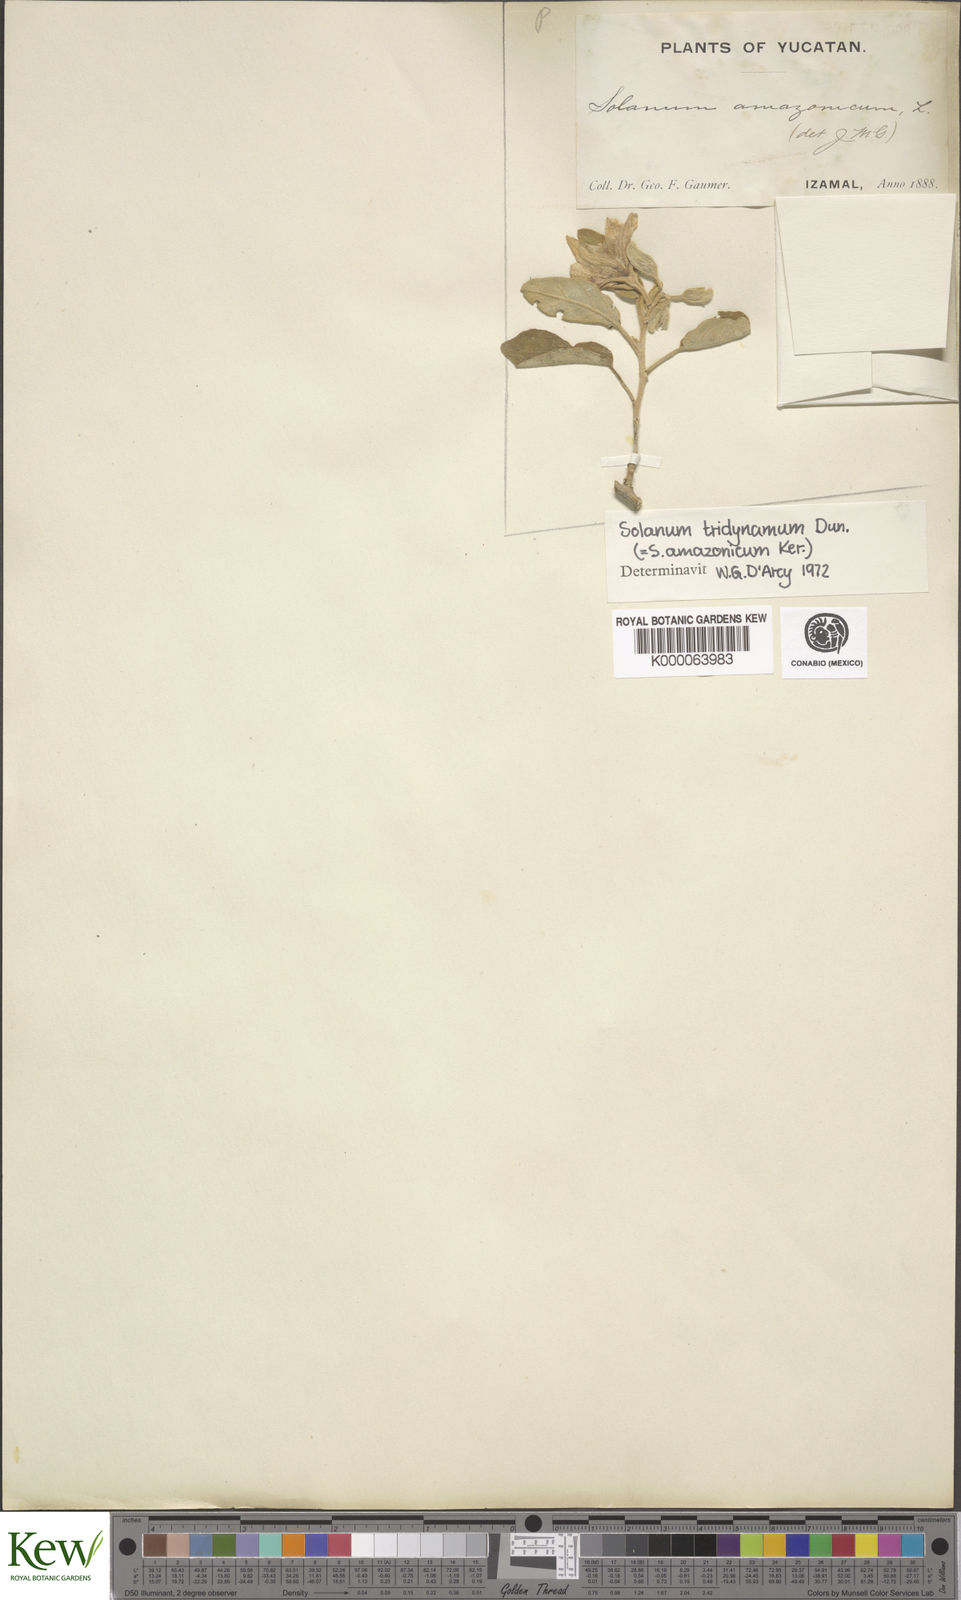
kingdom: Plantae
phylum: Tracheophyta
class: Magnoliopsida
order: Solanales
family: Solanaceae
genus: Solanum
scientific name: Solanum houstonii
